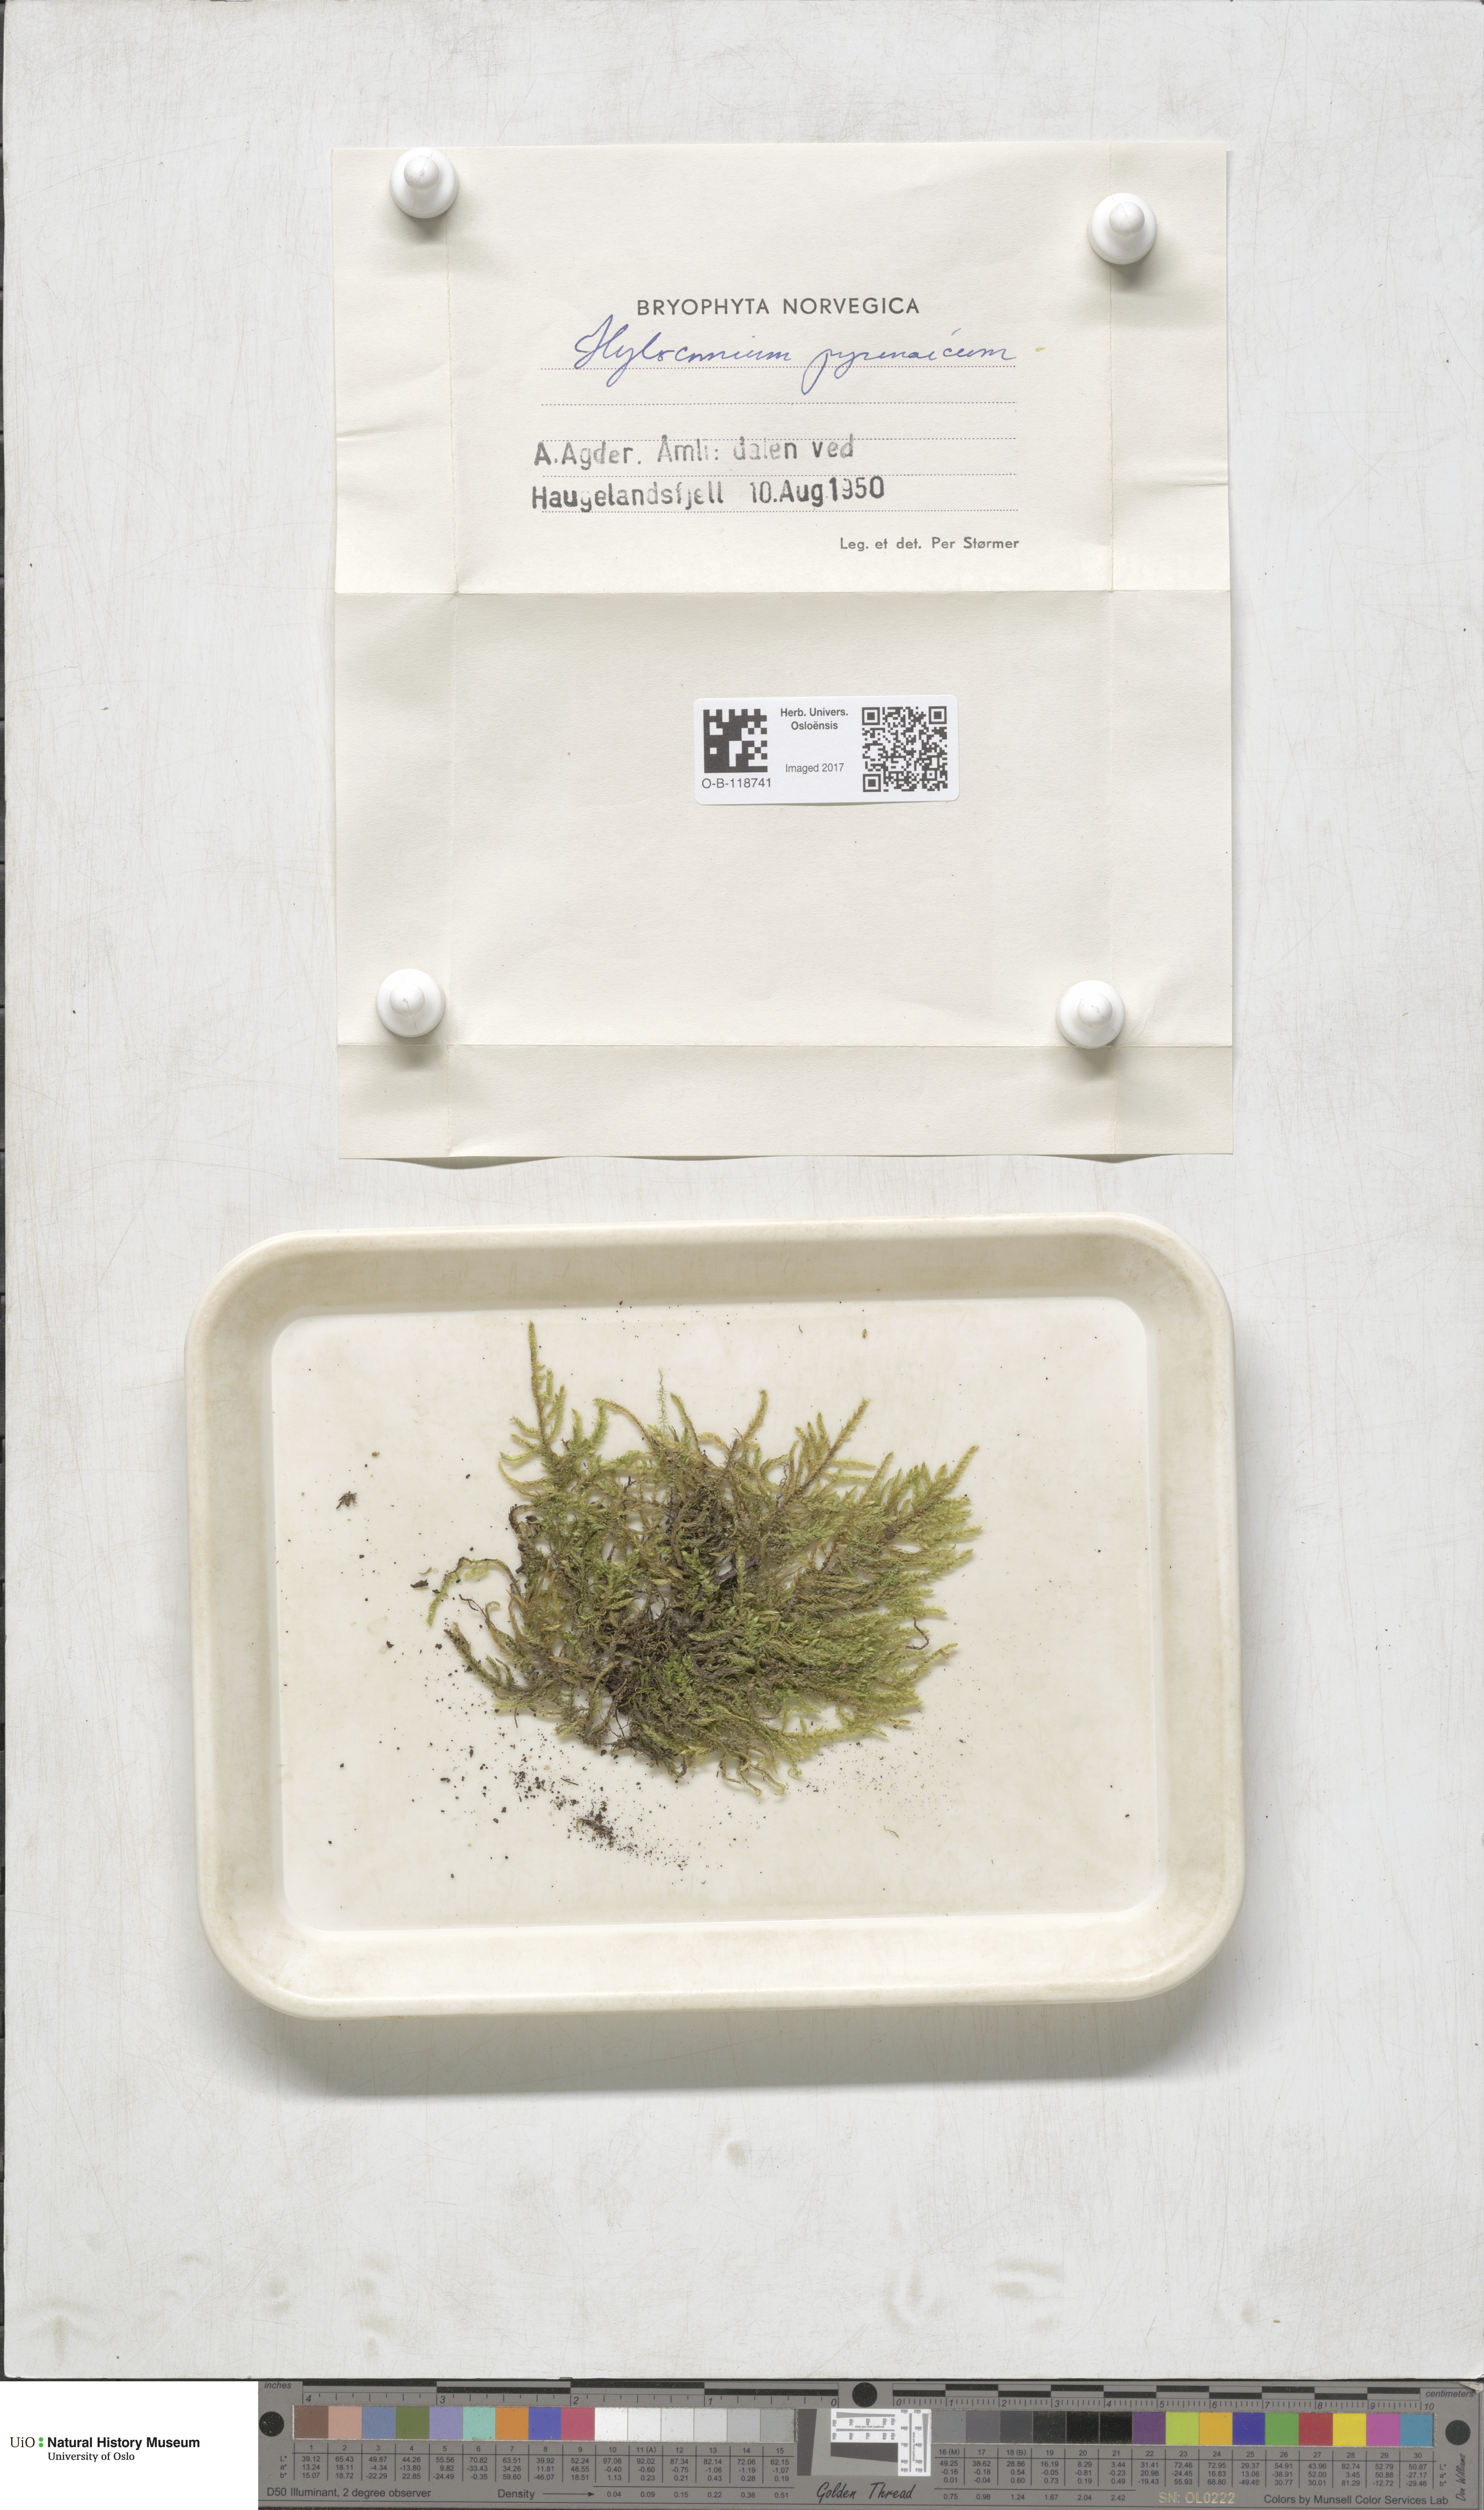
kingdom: Plantae
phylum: Bryophyta
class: Bryopsida
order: Hypnales
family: Hylocomiaceae
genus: Hylocomiastrum
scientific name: Hylocomiastrum pyrenaicum
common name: Oake s wood moss
